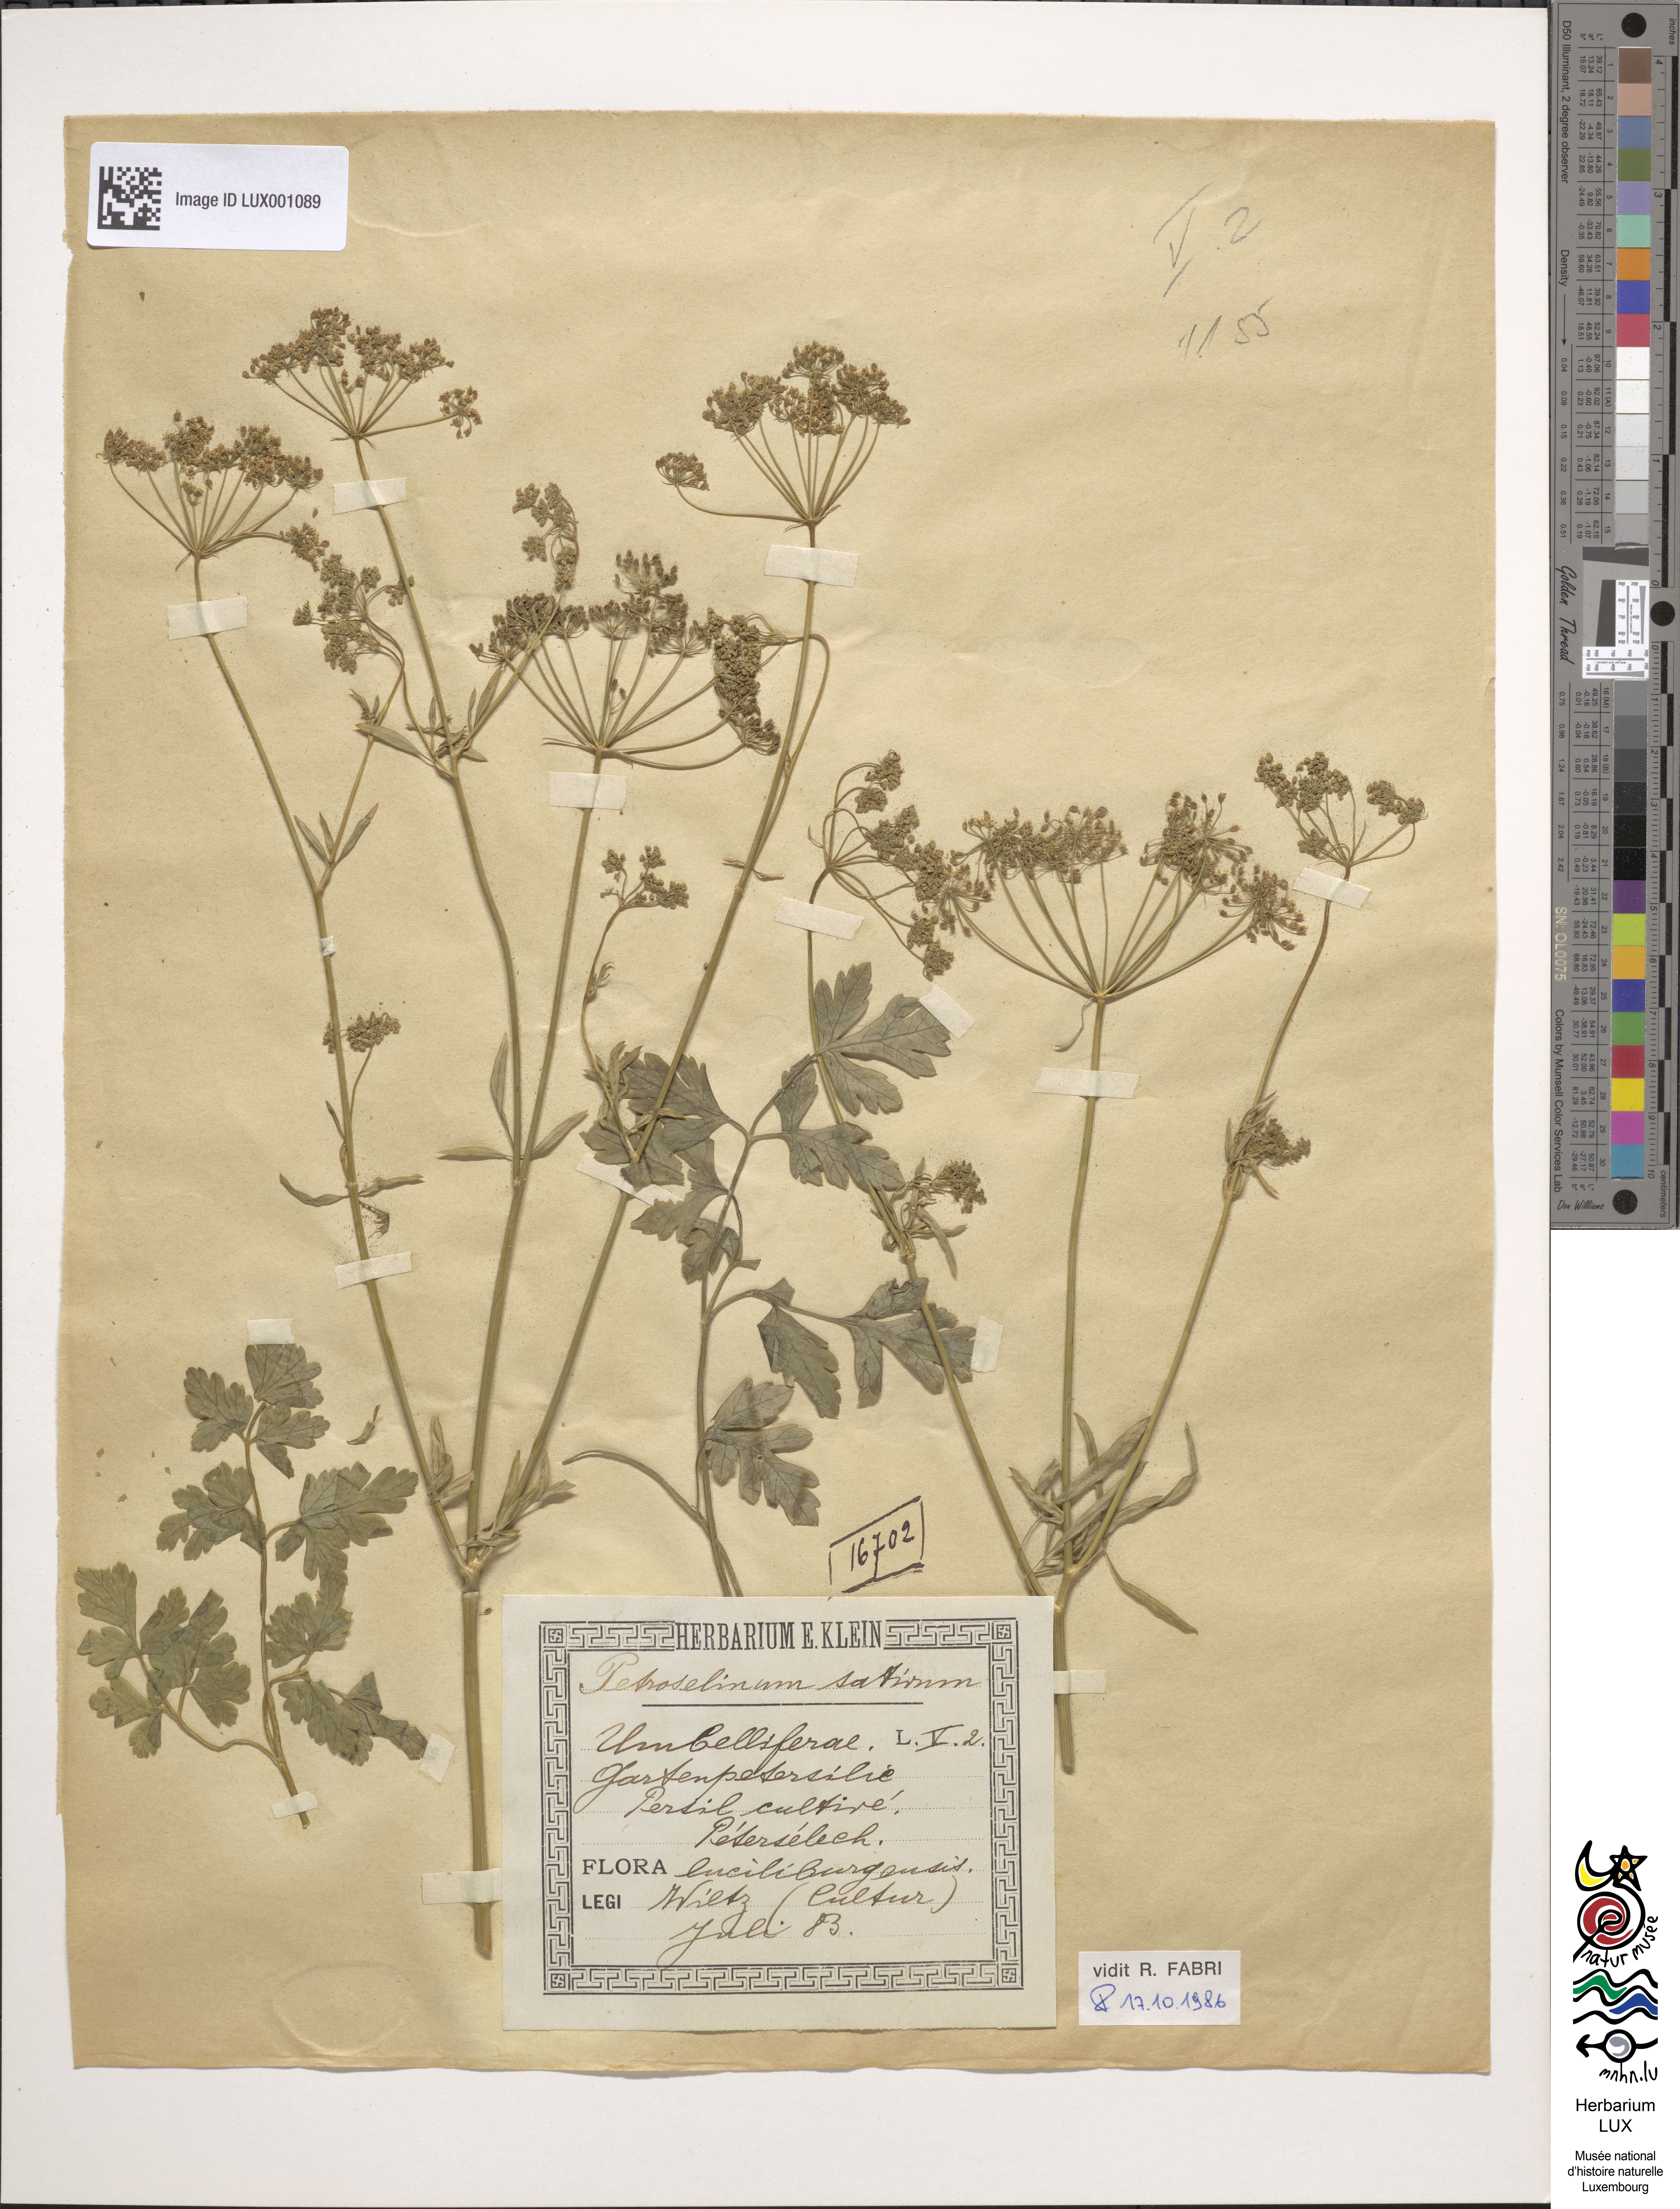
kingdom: Plantae
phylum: Tracheophyta
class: Magnoliopsida
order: Apiales
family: Apiaceae
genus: Petroselinum
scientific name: Petroselinum crispum
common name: Parsley
